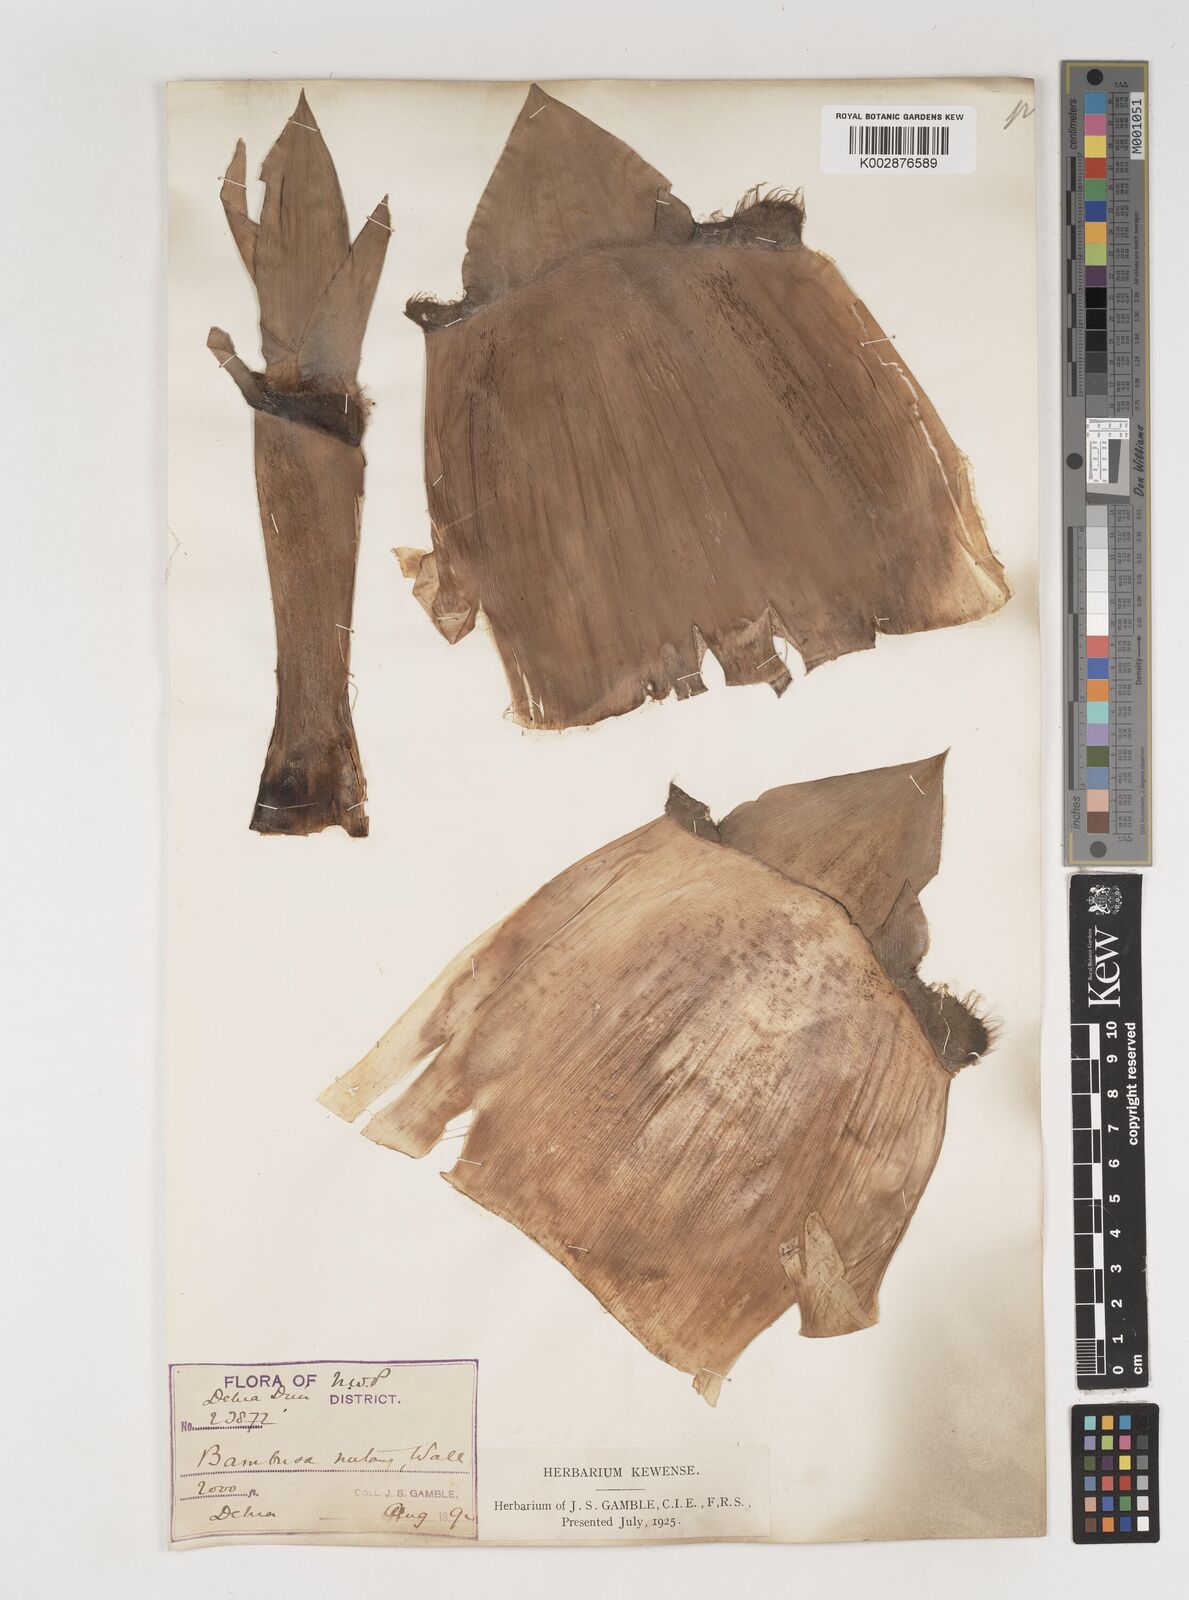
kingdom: Plantae
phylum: Tracheophyta
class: Liliopsida
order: Poales
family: Poaceae
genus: Bambusa
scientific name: Bambusa nutans
